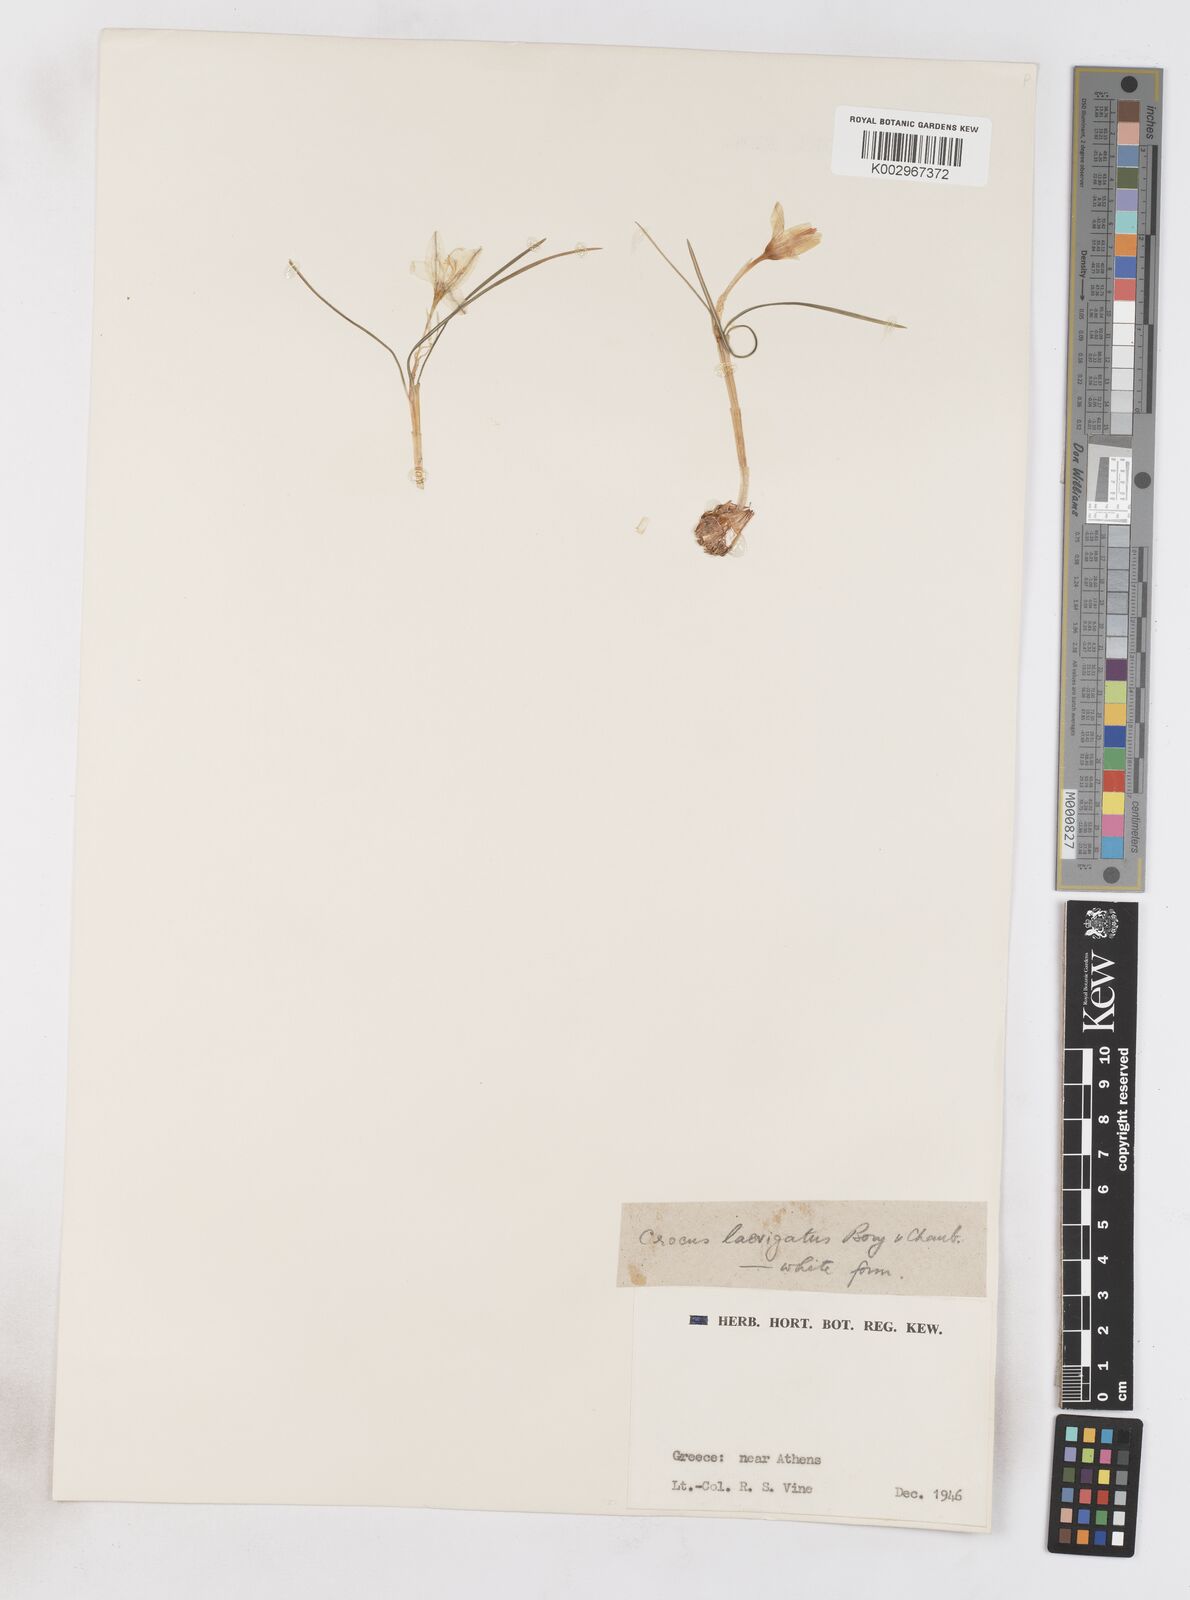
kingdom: Plantae
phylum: Tracheophyta
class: Liliopsida
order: Asparagales
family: Iridaceae
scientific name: Iridaceae
